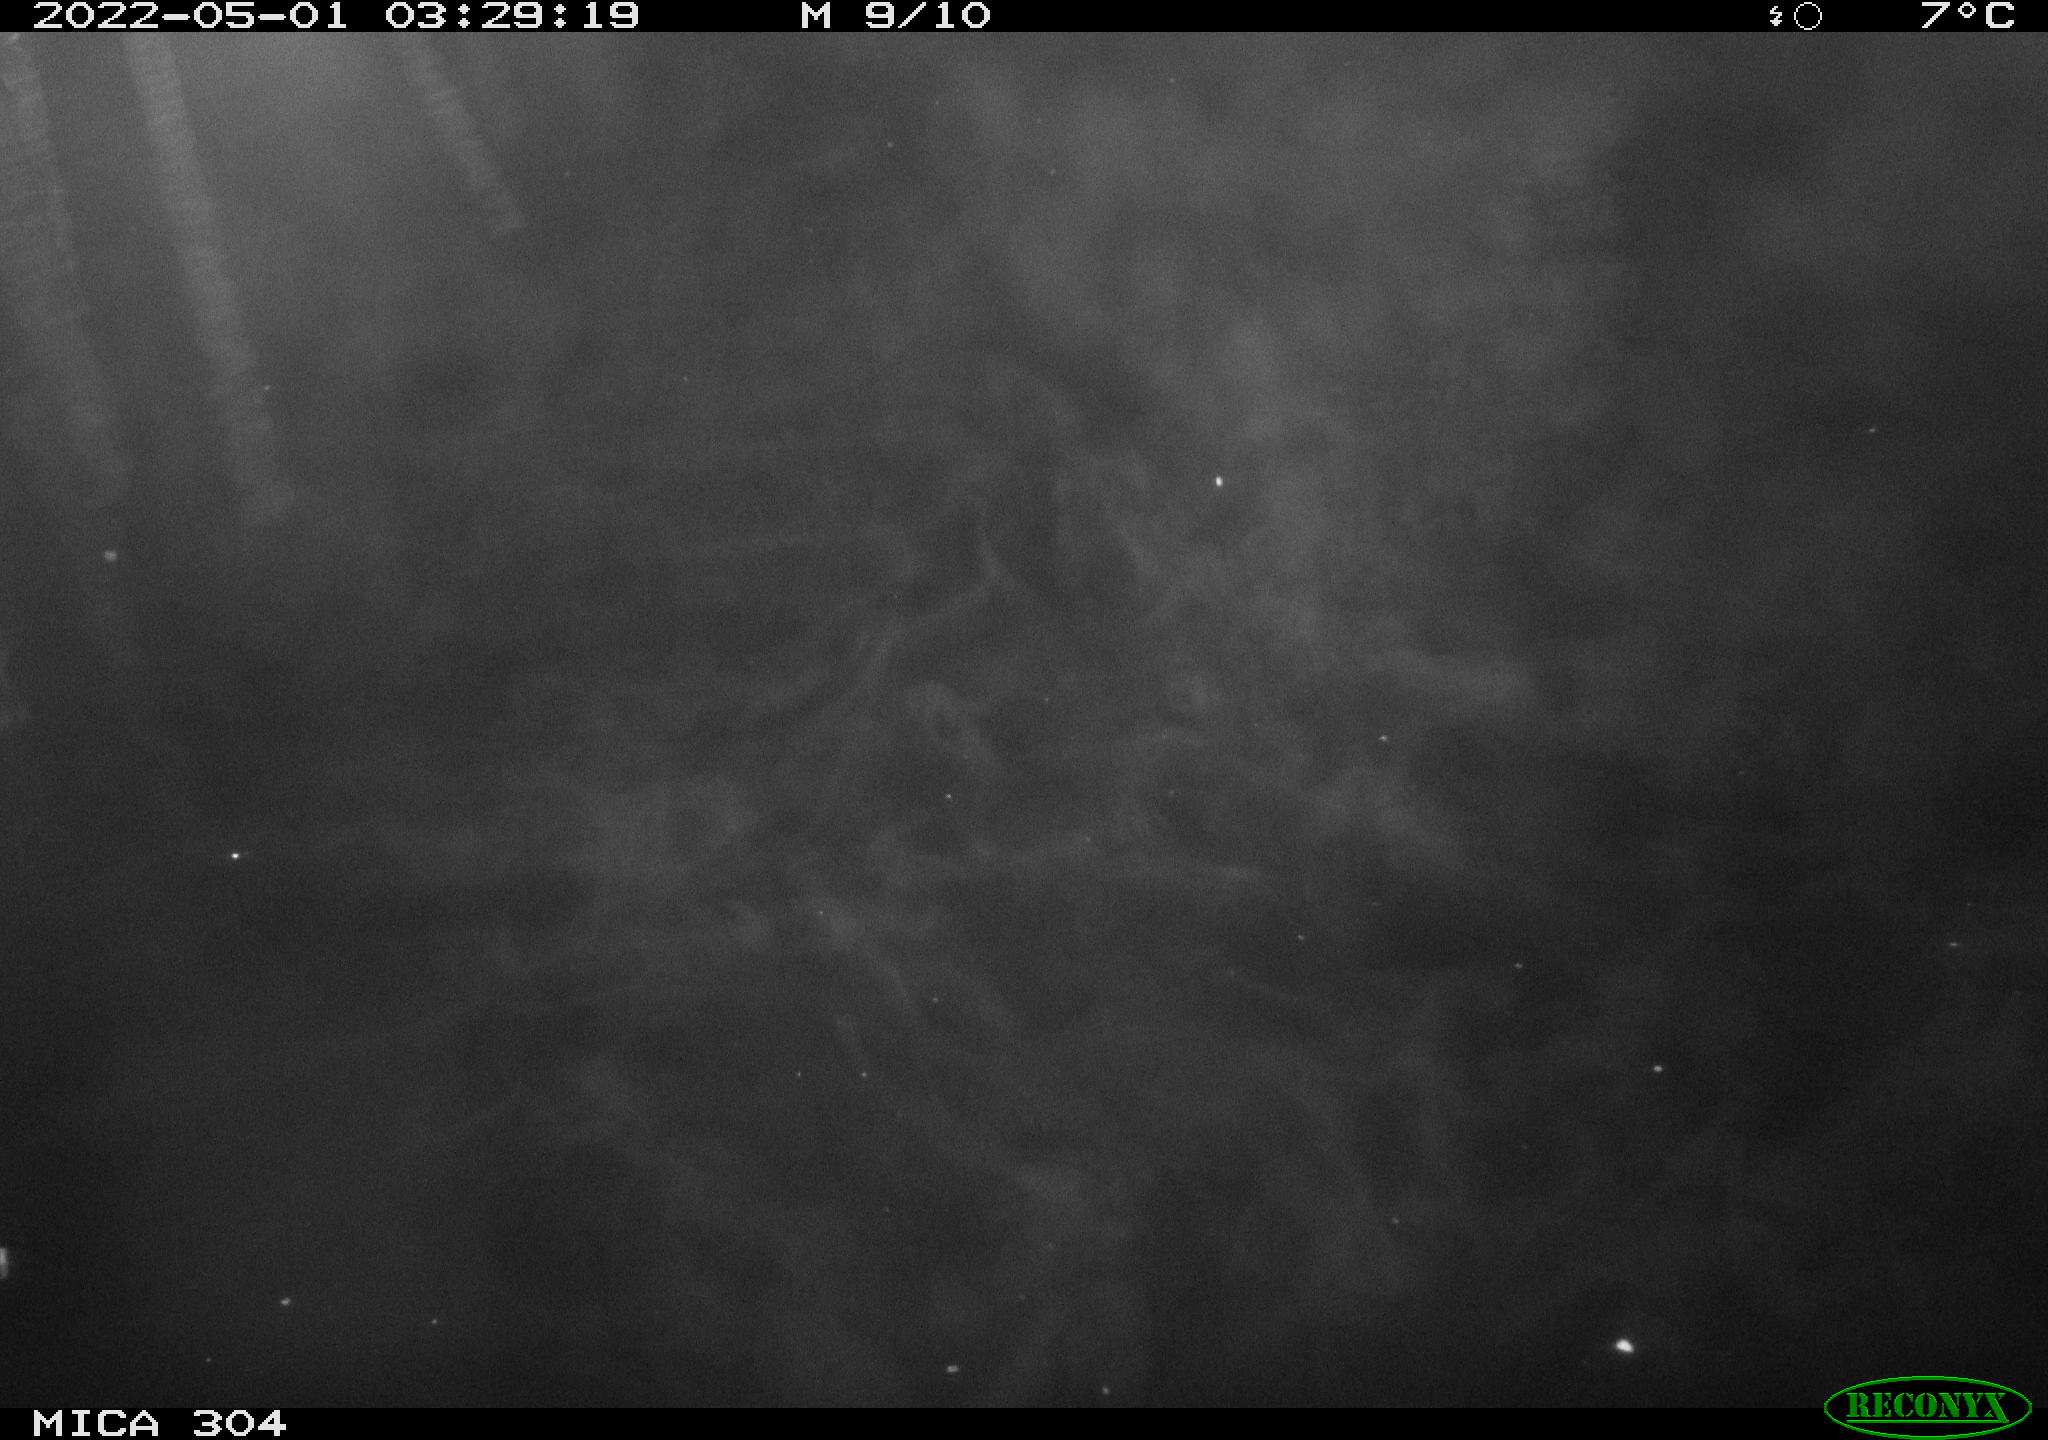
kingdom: Animalia
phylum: Chordata
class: Mammalia
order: Rodentia
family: Muridae
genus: Rattus
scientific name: Rattus norvegicus
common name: Brown rat
